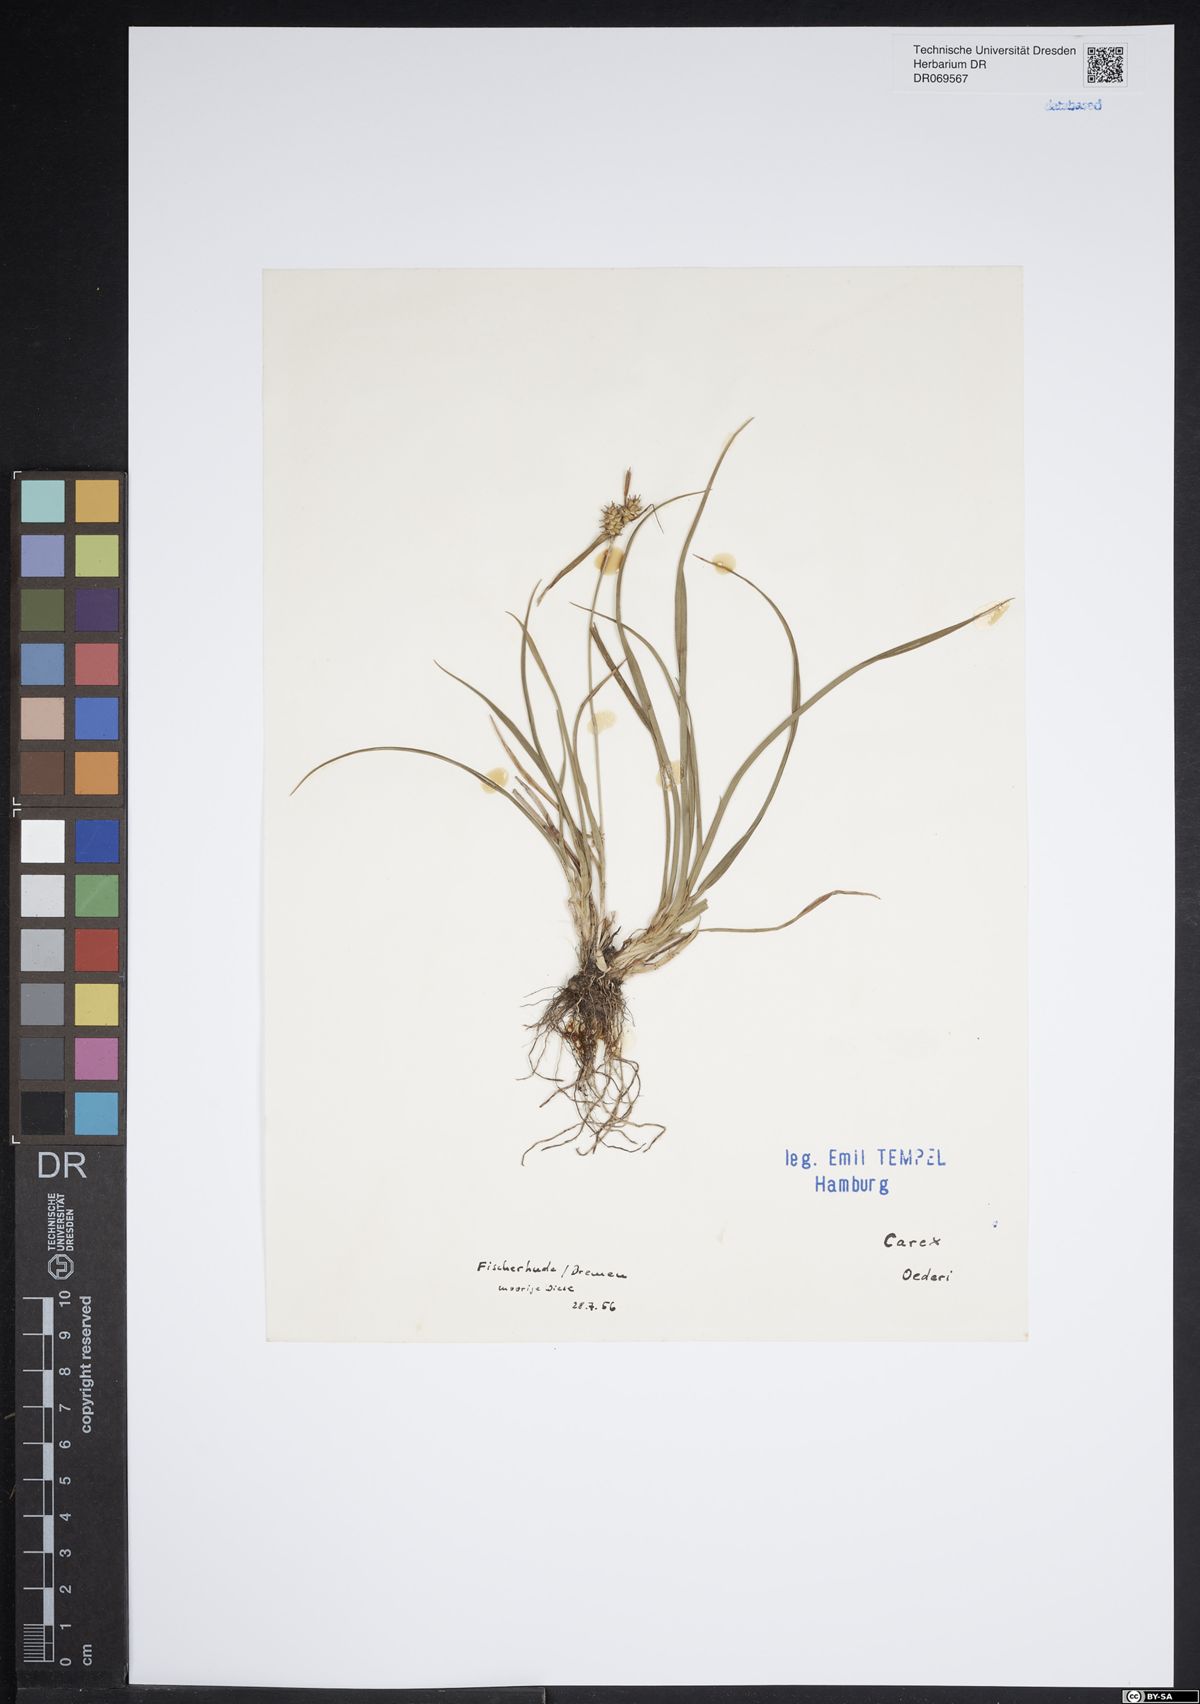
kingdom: Plantae
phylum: Tracheophyta
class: Liliopsida
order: Poales
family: Cyperaceae
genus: Carex
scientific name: Carex oederi
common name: Common & small-fruited yellow-sedge
